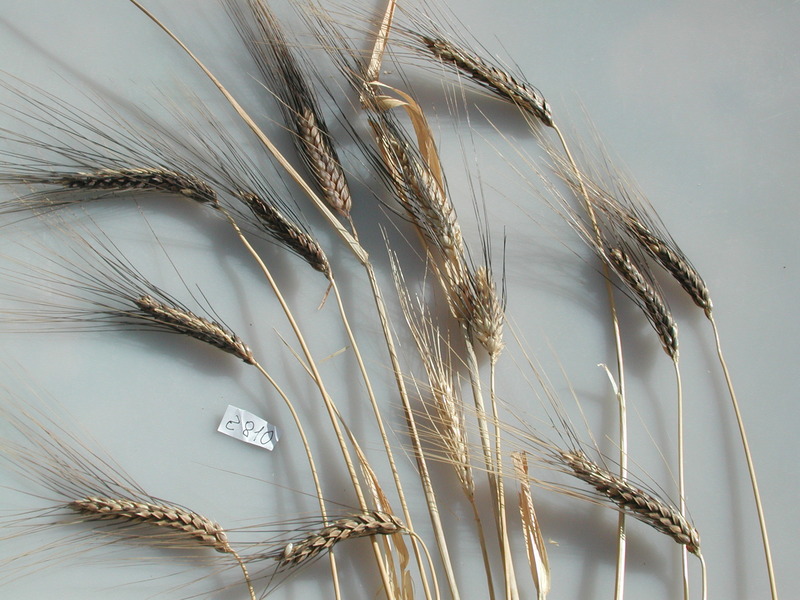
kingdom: Plantae
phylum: Tracheophyta
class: Liliopsida
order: Poales
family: Poaceae
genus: Triticum
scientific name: Triticum turgidum
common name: Wheat
